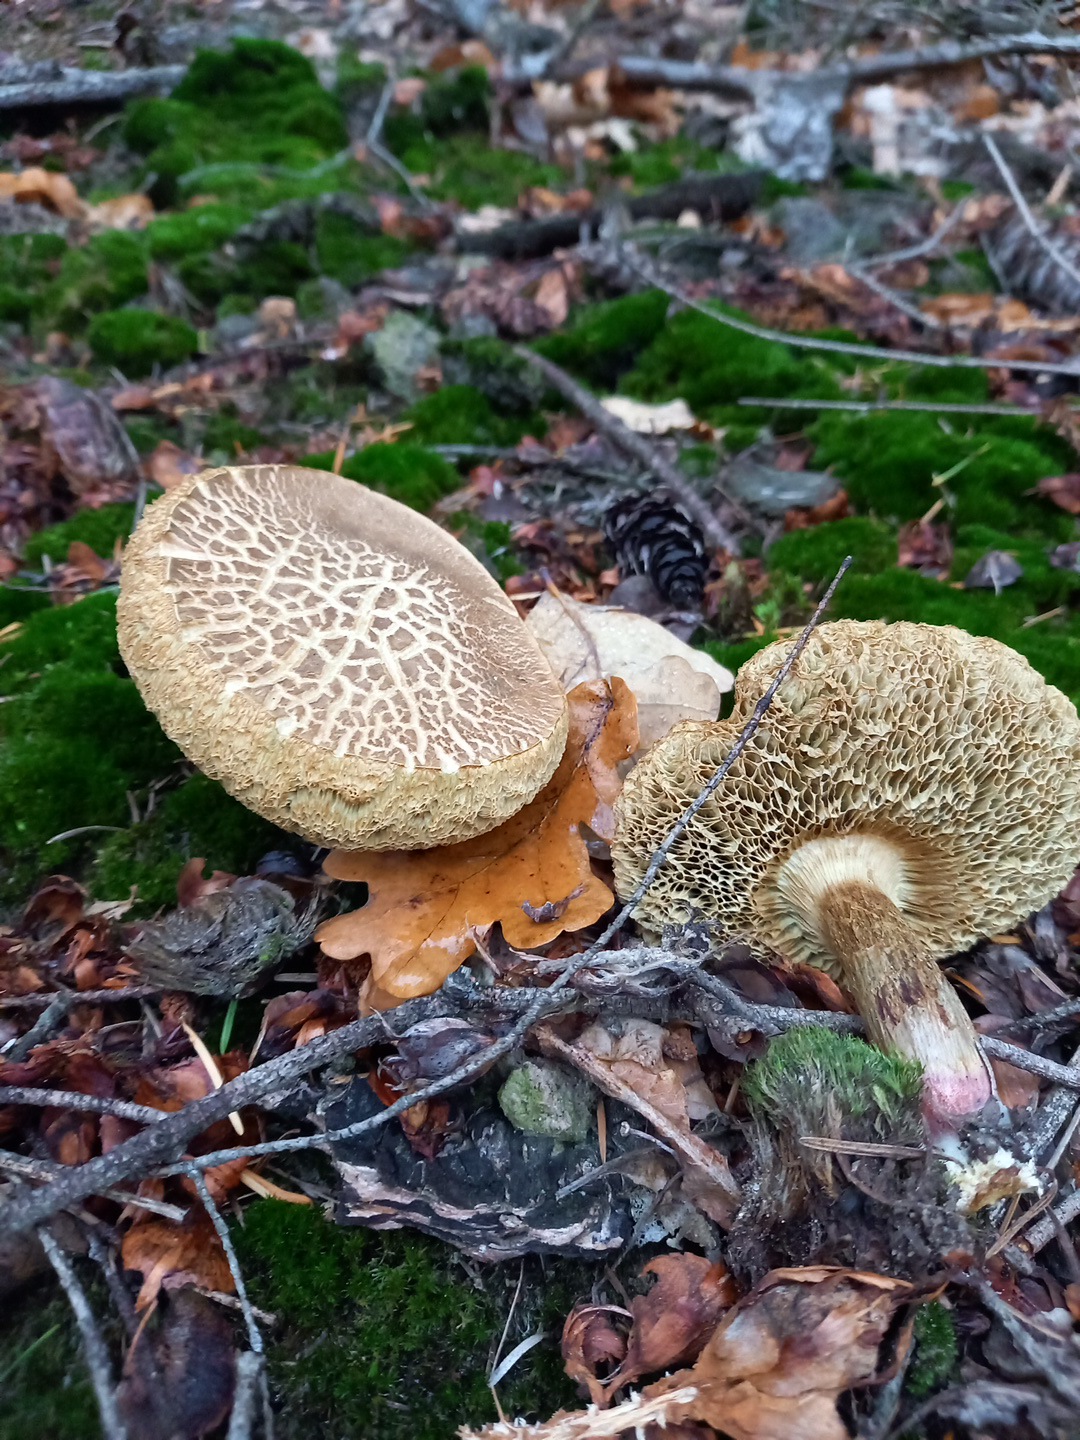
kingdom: Fungi
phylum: Basidiomycota
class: Agaricomycetes
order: Boletales
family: Boletaceae
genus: Xerocomellus
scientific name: Xerocomellus porosporus
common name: hvidsprukken rørhat
